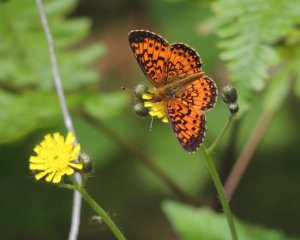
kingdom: Animalia
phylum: Arthropoda
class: Insecta
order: Lepidoptera
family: Nymphalidae
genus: Boloria
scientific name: Boloria selene
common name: Silver-bordered Fritillary
